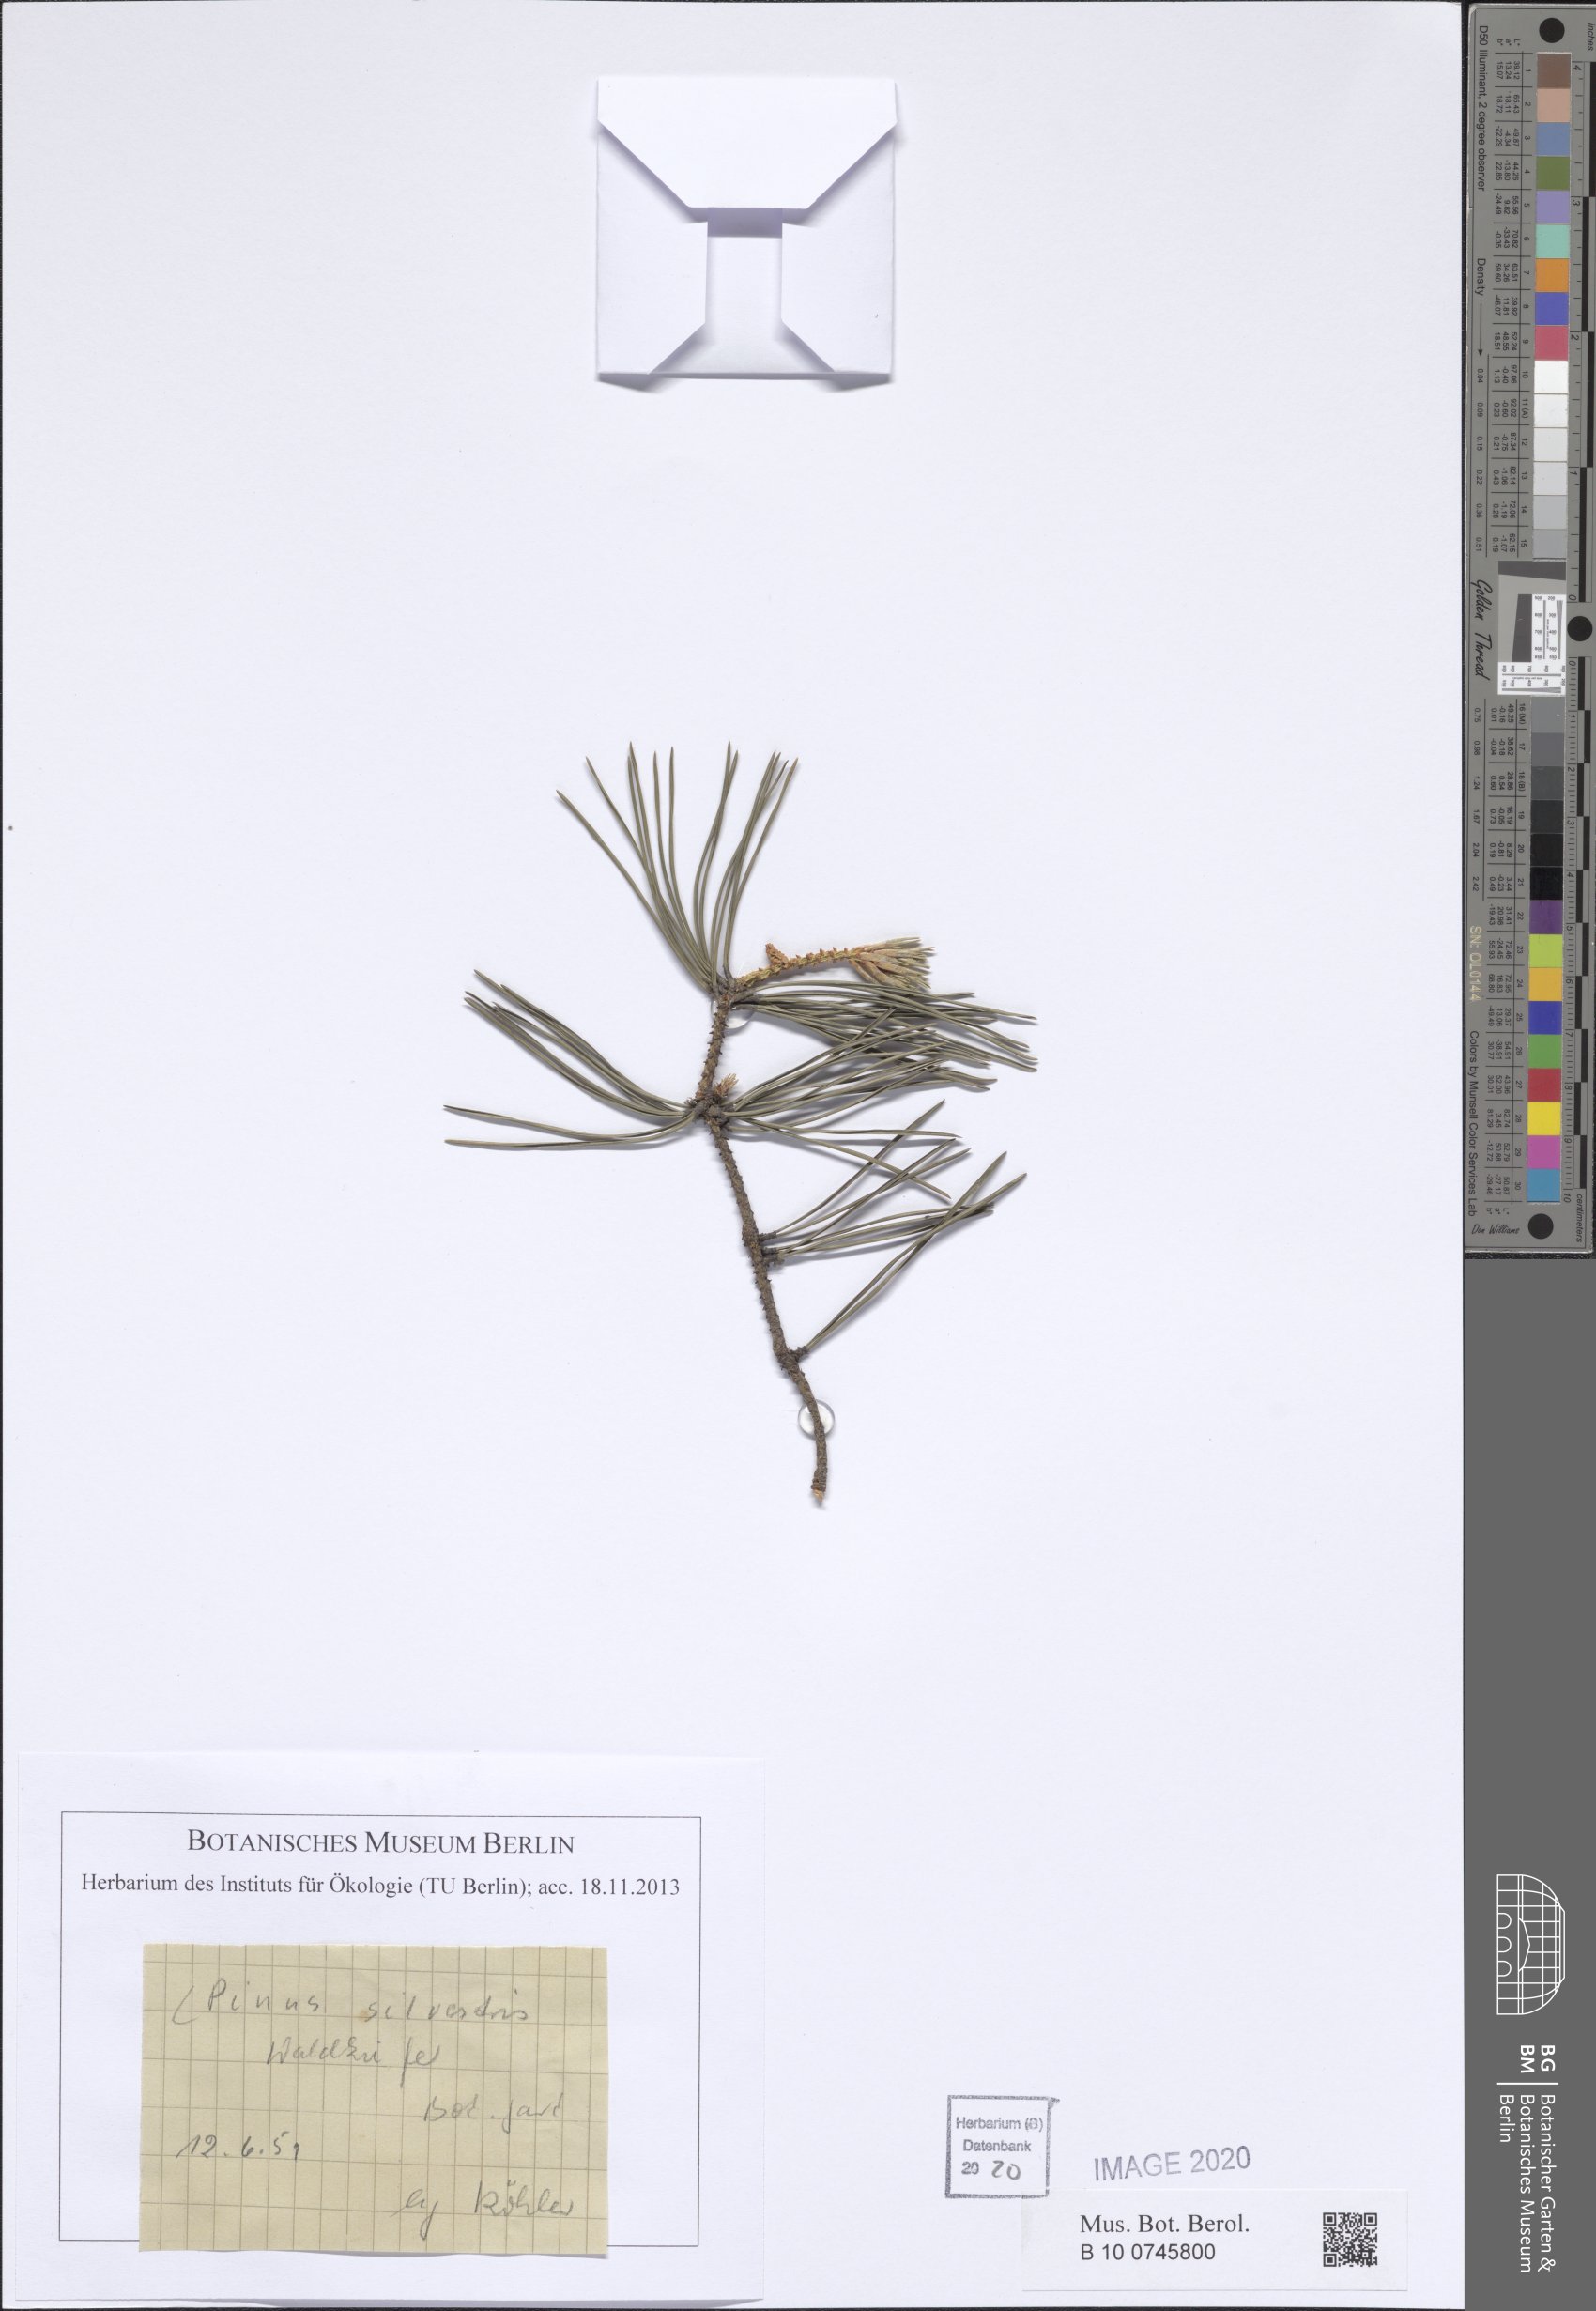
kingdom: Plantae
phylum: Tracheophyta
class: Pinopsida
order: Pinales
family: Pinaceae
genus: Pinus
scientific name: Pinus sylvestris
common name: Scots pine
